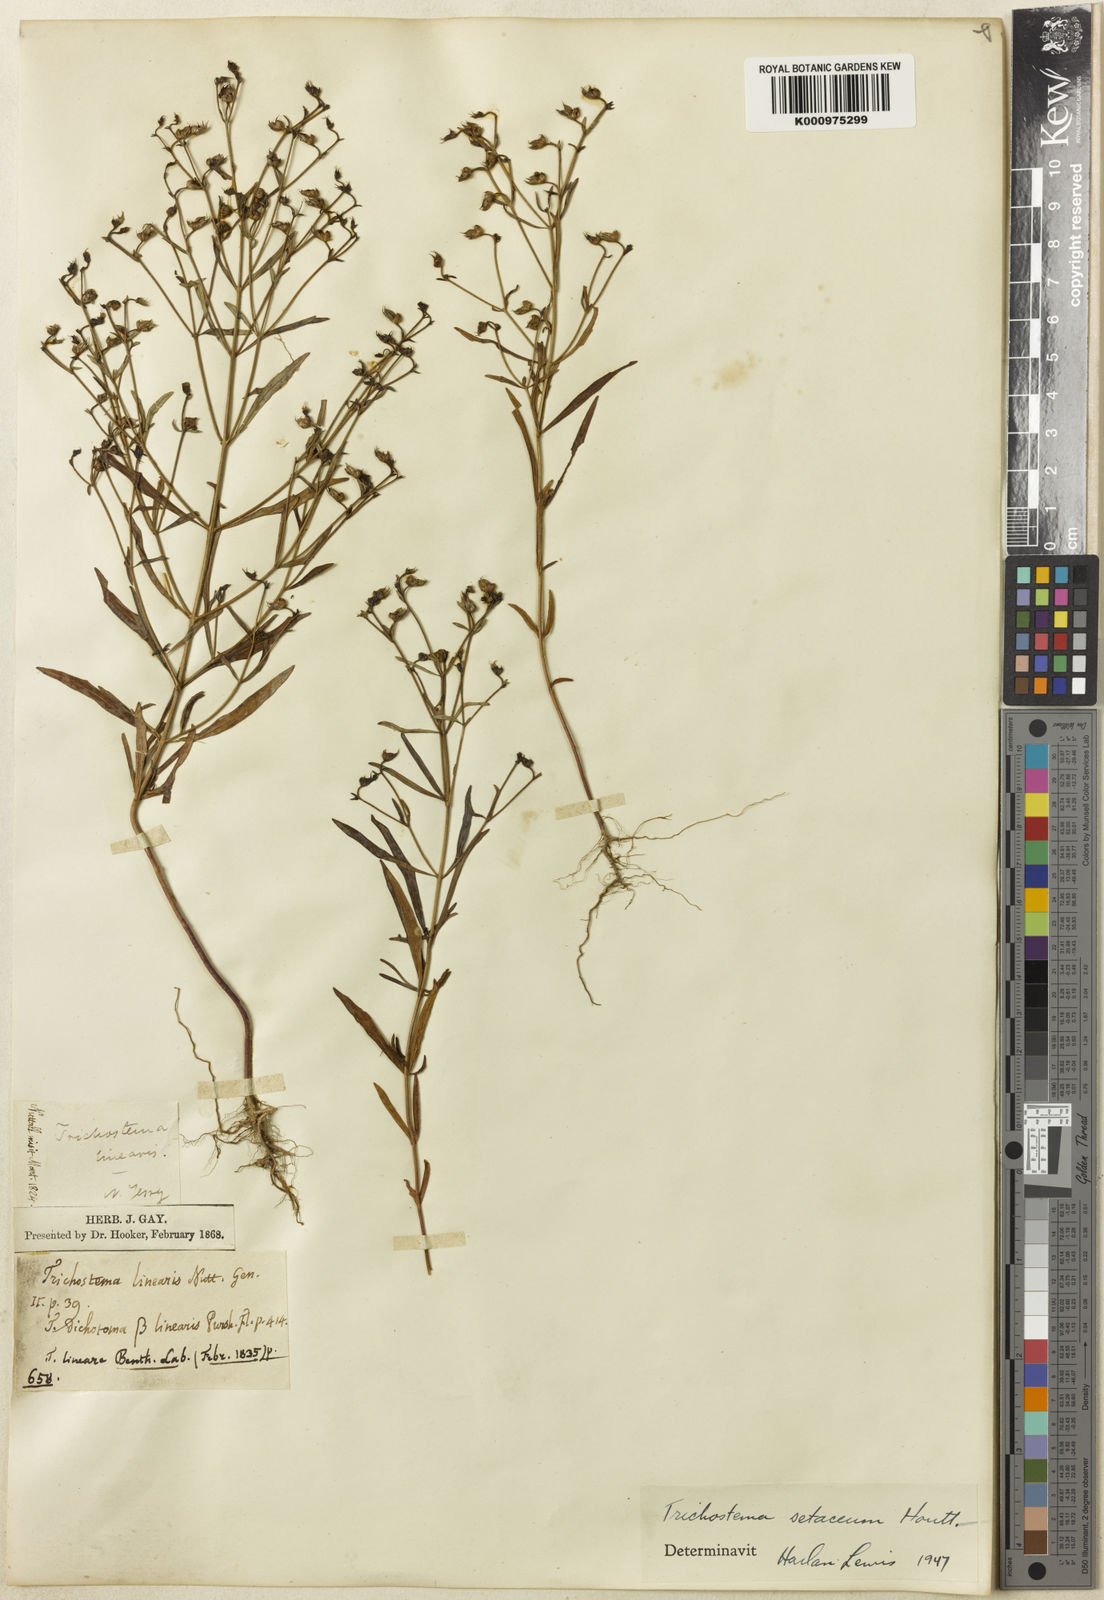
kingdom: Plantae
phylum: Tracheophyta
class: Magnoliopsida
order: Lamiales
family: Lamiaceae
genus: Trichostema
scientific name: Trichostema setaceum
